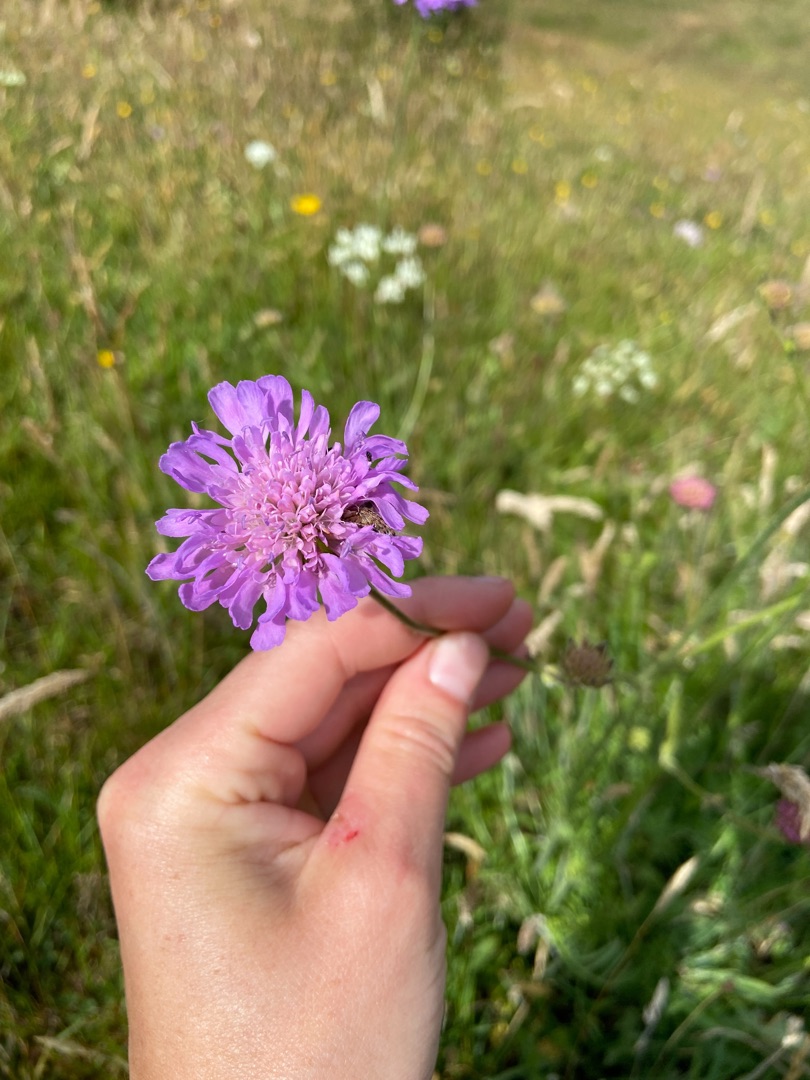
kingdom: Plantae
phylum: Tracheophyta
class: Magnoliopsida
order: Dipsacales
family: Caprifoliaceae
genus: Knautia
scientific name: Knautia arvensis
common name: Blåhat
